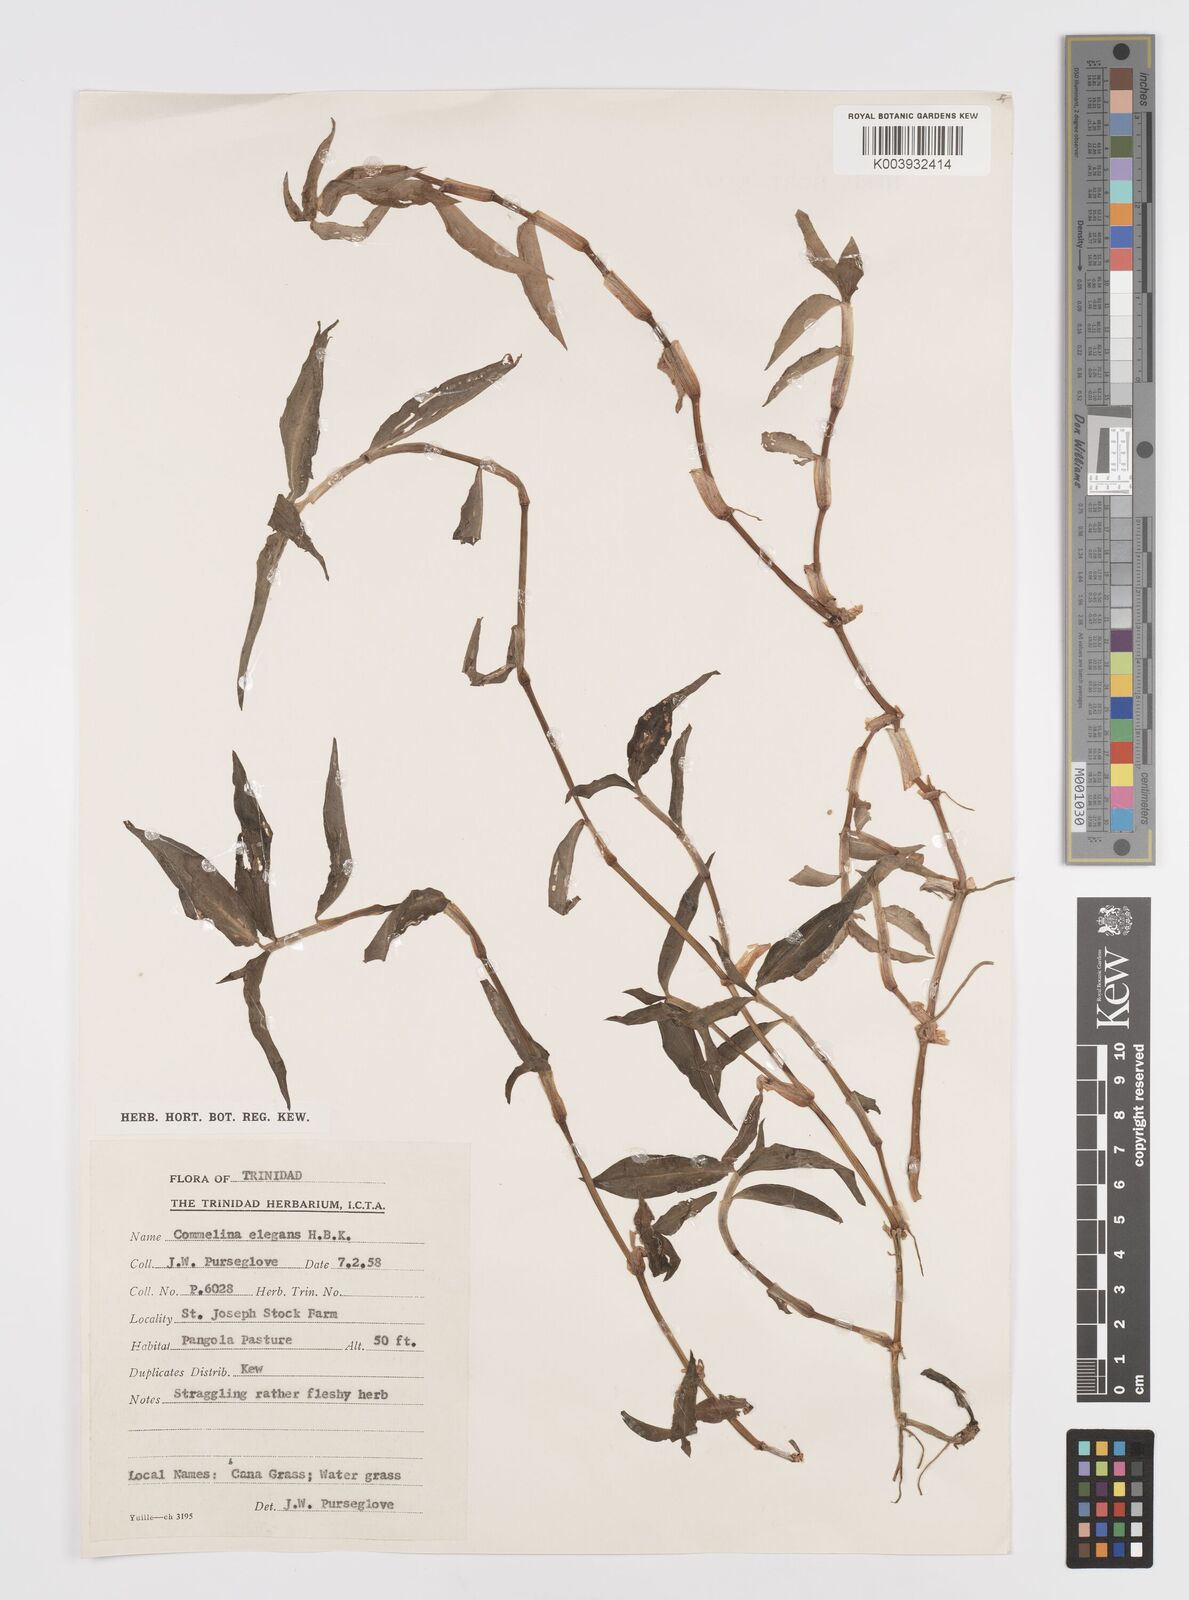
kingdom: Plantae
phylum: Tracheophyta
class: Liliopsida
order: Commelinales
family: Commelinaceae
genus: Commelina
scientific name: Commelina erecta
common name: Blousel blommetjie
